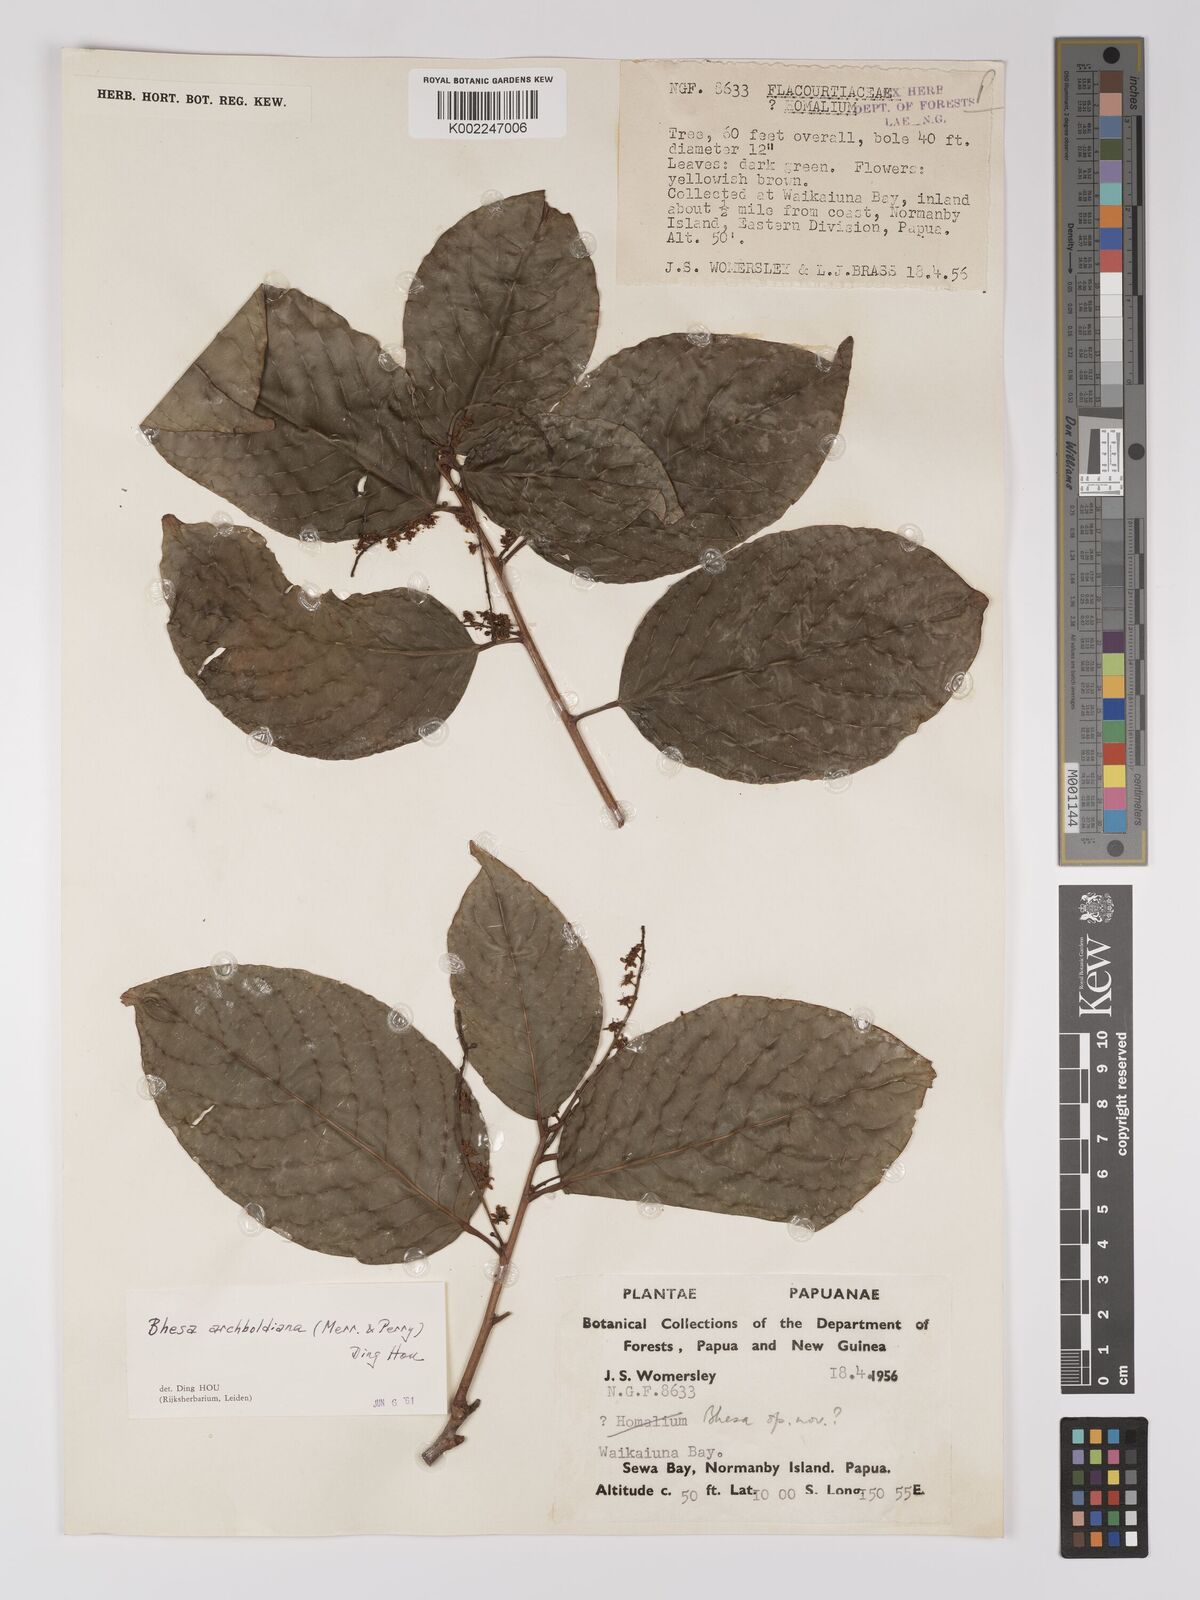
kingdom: Plantae
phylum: Tracheophyta
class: Magnoliopsida
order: Malpighiales
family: Centroplacaceae
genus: Bhesa
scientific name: Bhesa archboldiana
